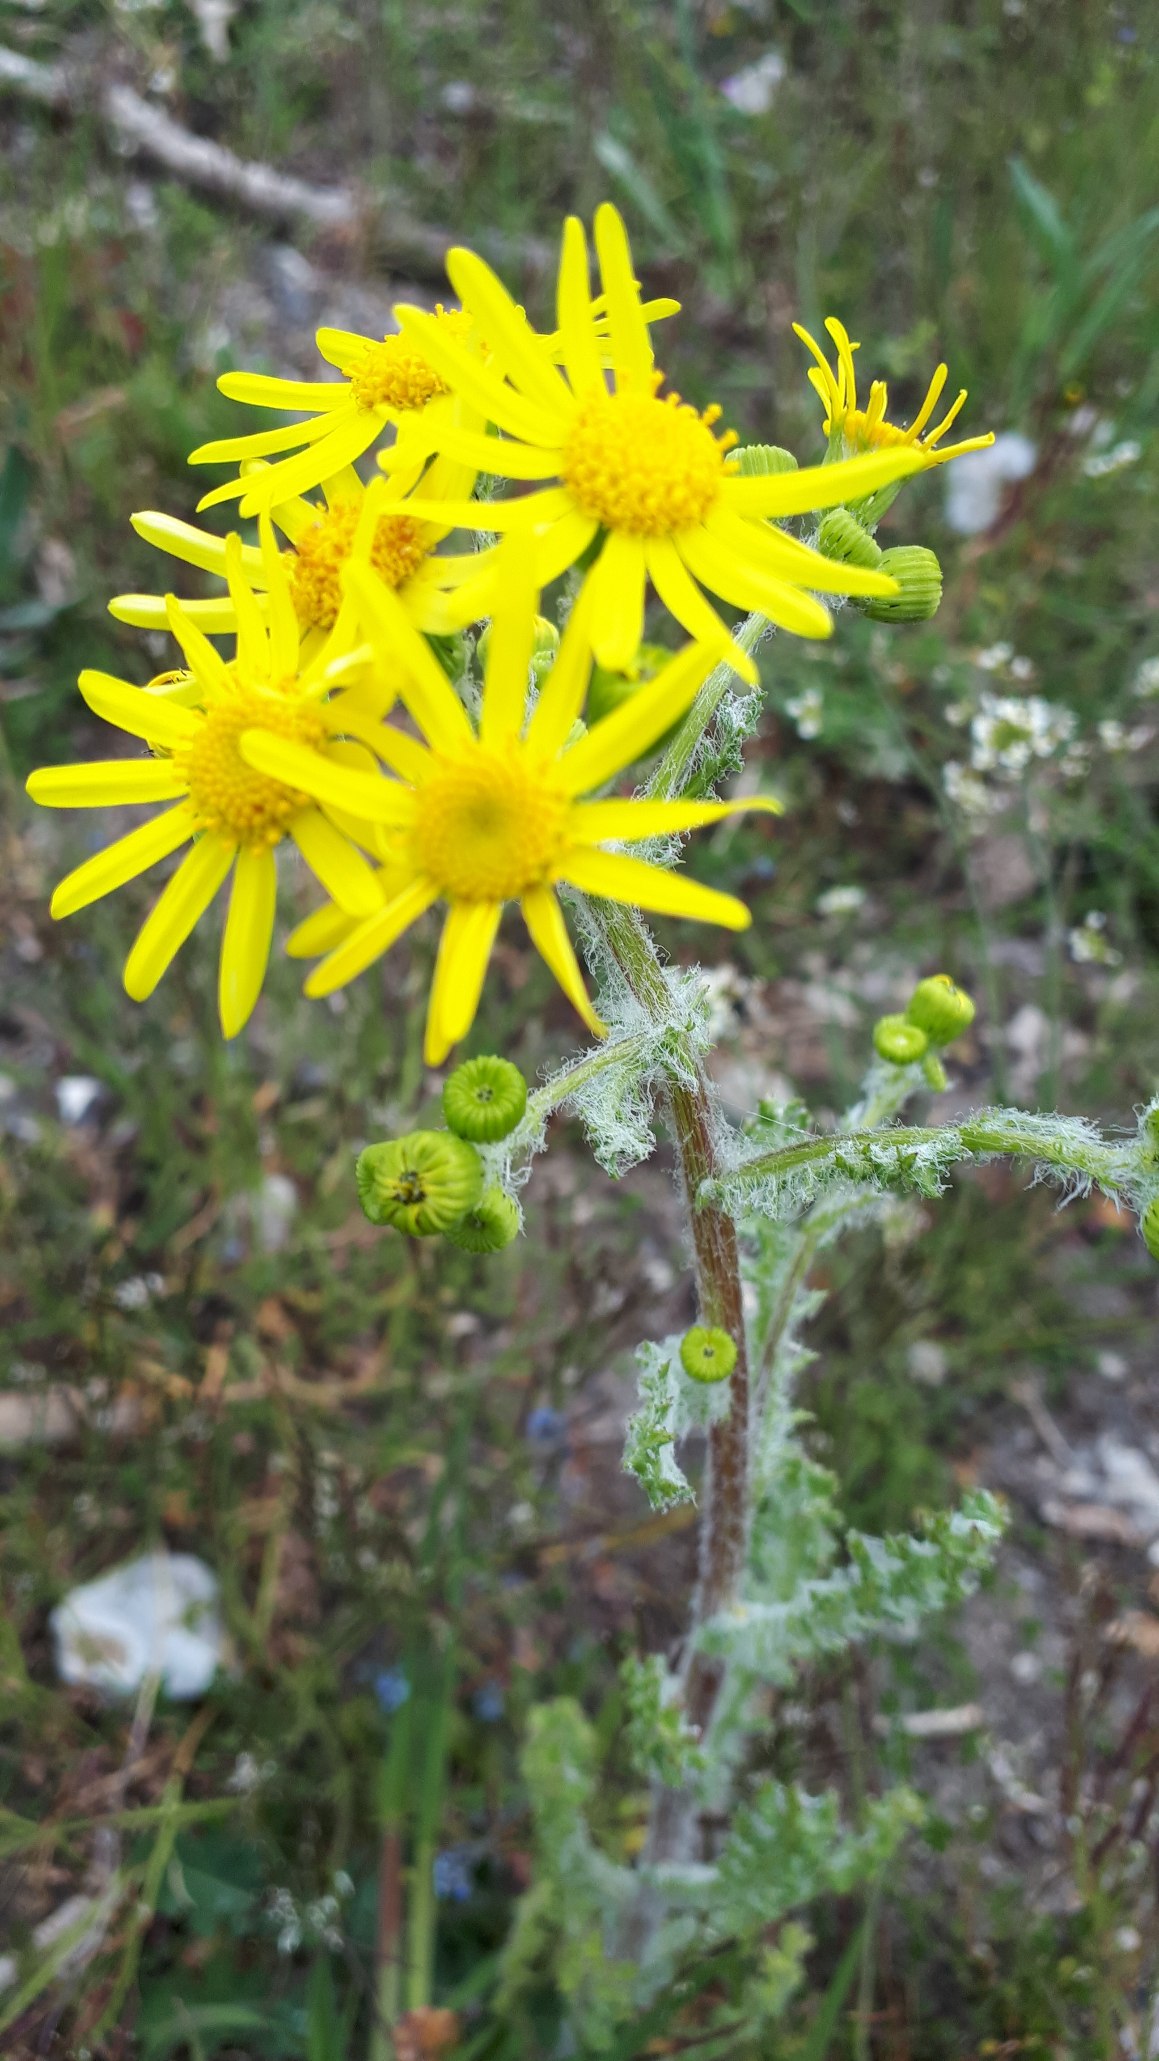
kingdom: Plantae
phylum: Tracheophyta
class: Magnoliopsida
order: Asterales
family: Asteraceae
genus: Senecio
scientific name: Senecio leucanthemifolius
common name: Vår-brandbæger
